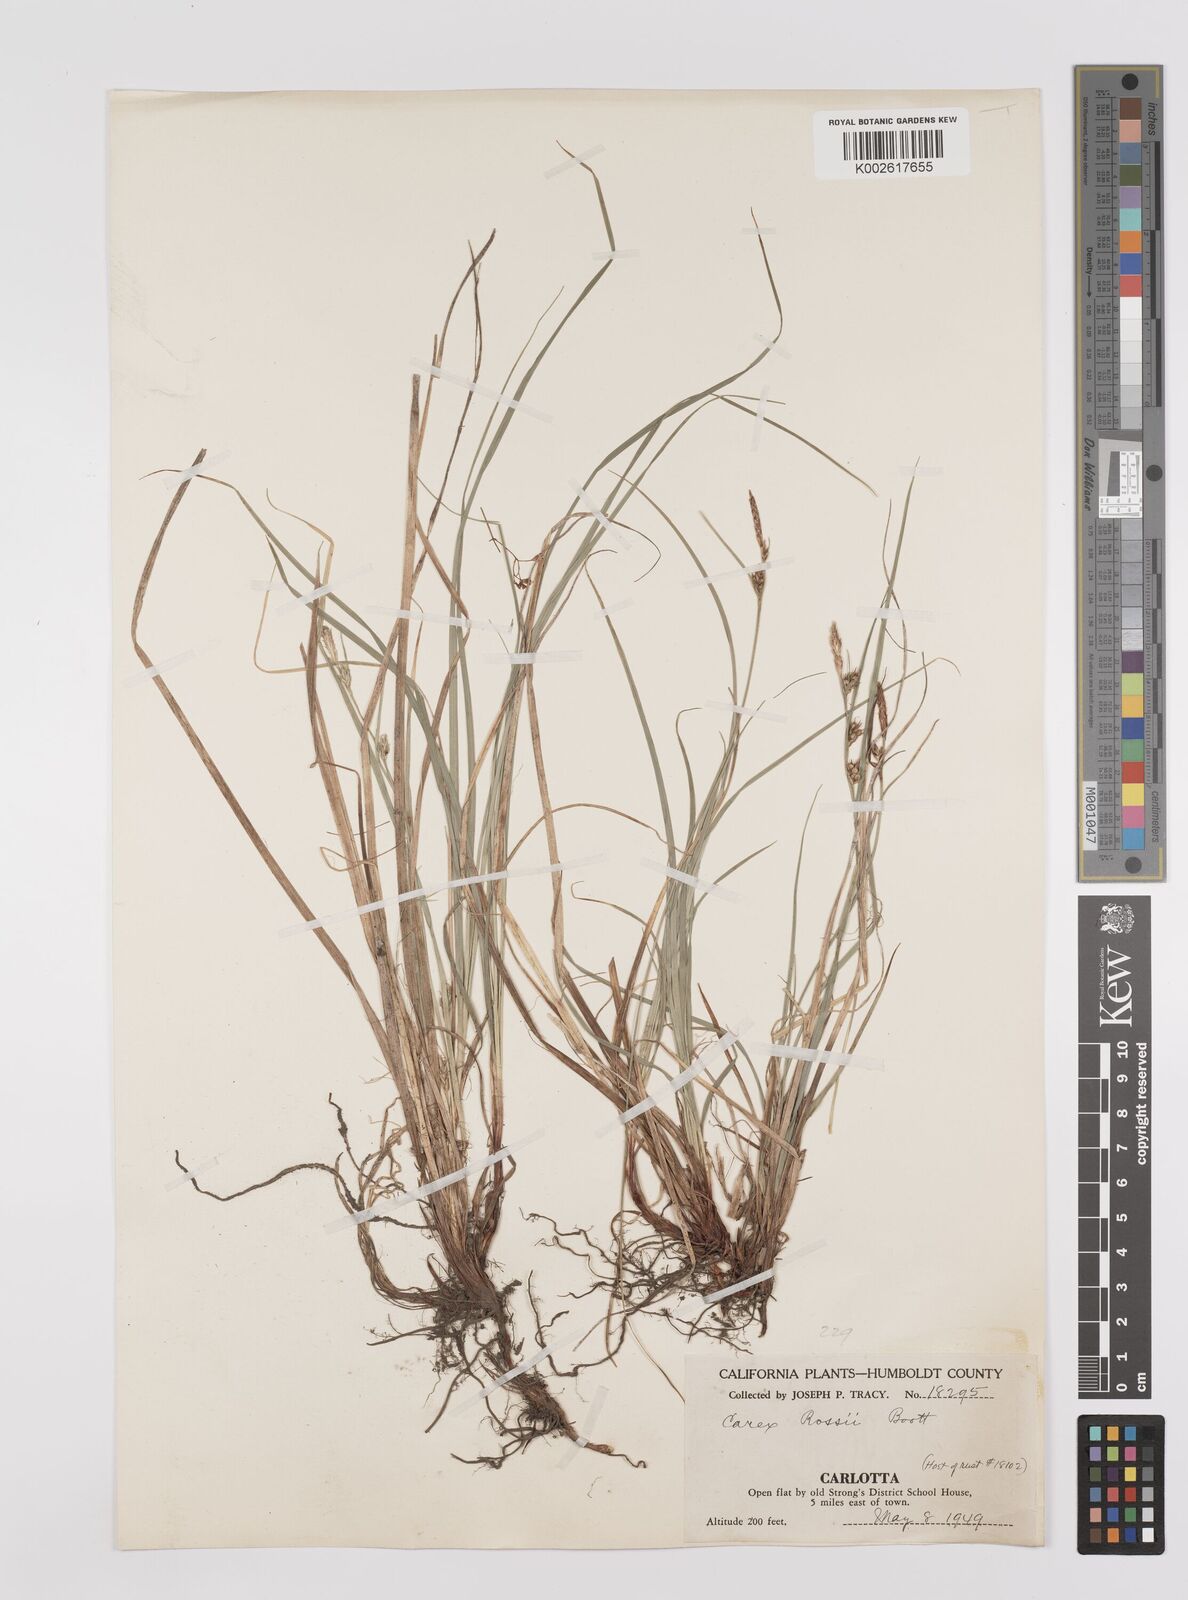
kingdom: Plantae
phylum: Tracheophyta
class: Liliopsida
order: Poales
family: Cyperaceae
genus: Carex
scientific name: Carex rossii
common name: Ross' sedge
